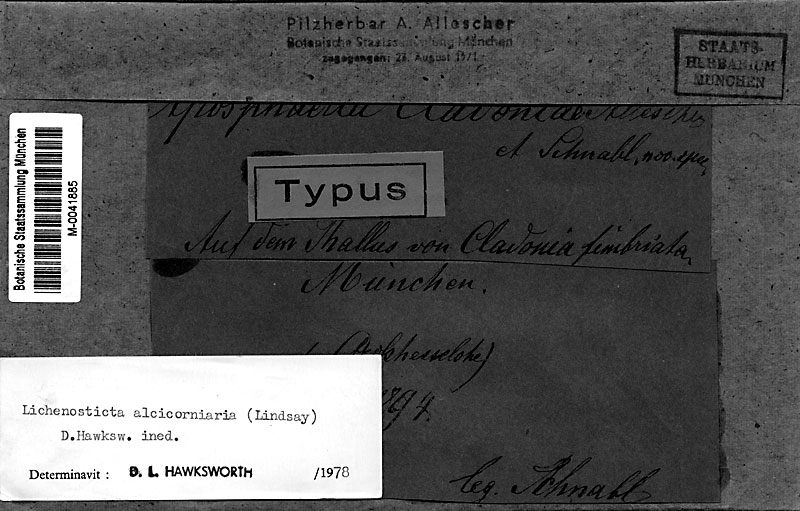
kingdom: Fungi
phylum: Ascomycota
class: Lecanoromycetes
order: Lecanorales
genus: Lichenosticta
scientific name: Lichenosticta alcicorniaria
